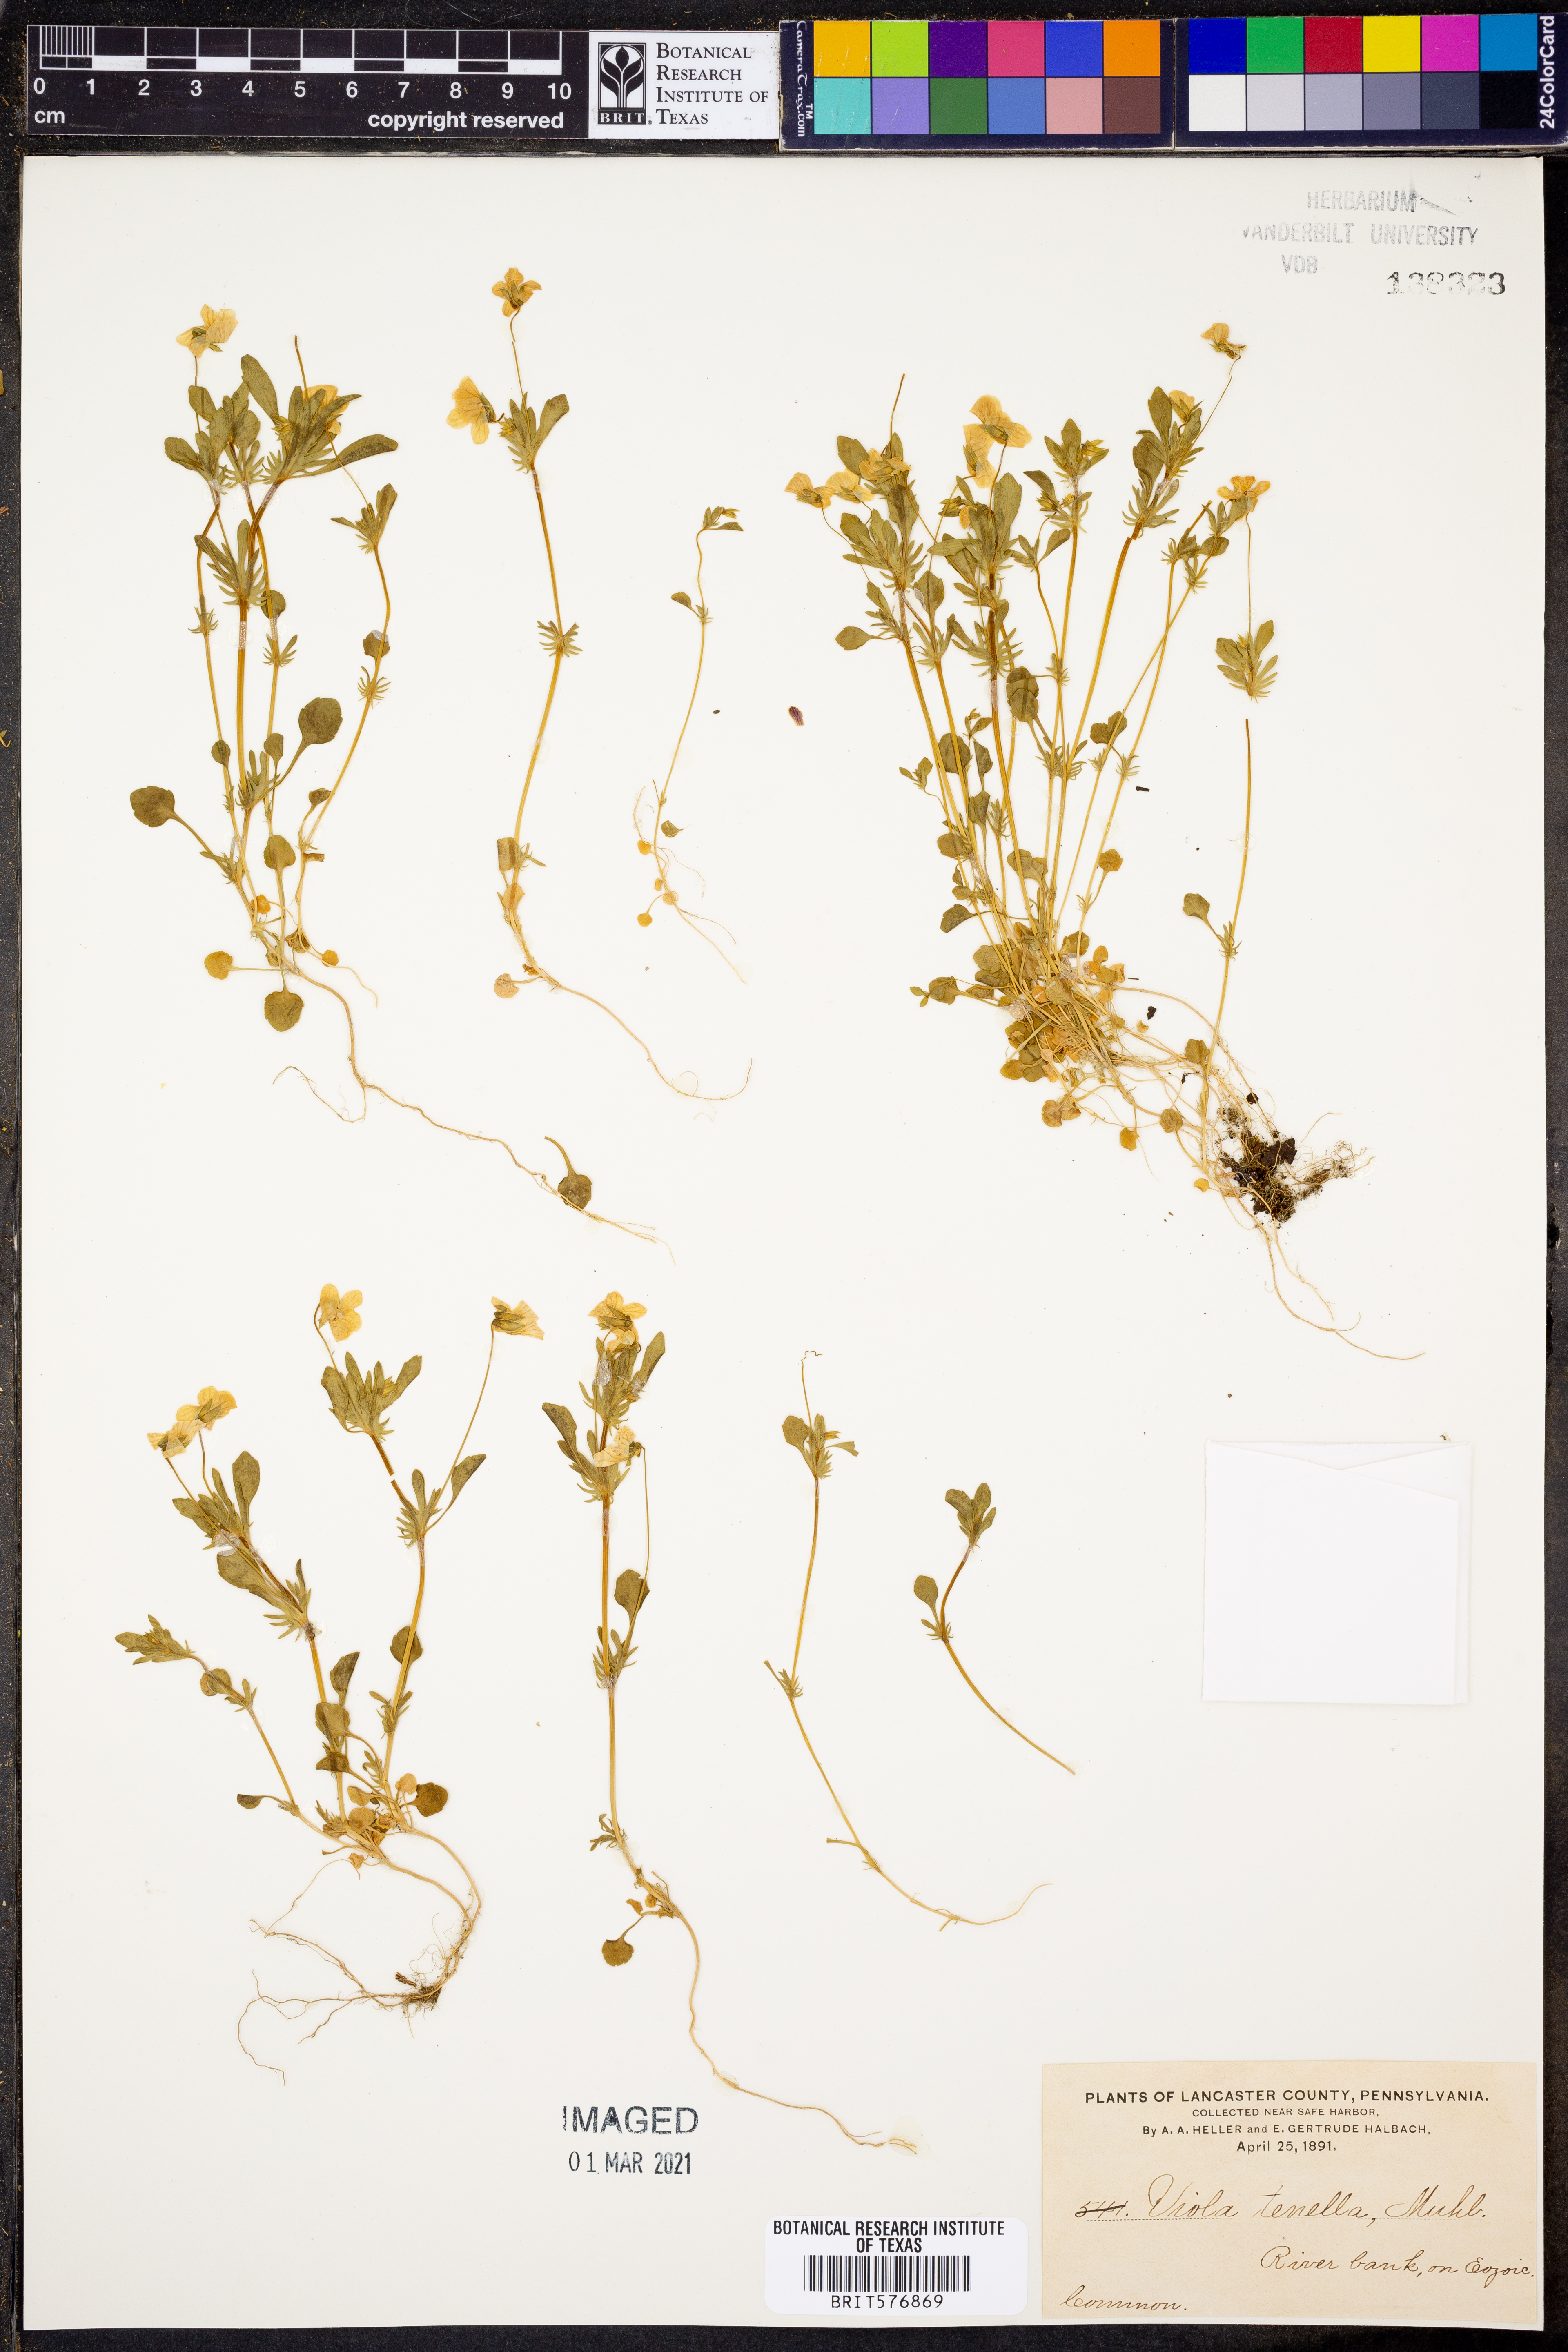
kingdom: Plantae
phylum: Tracheophyta
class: Magnoliopsida
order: Malpighiales
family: Violaceae
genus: Viola
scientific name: Viola tricolor
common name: Pansy
